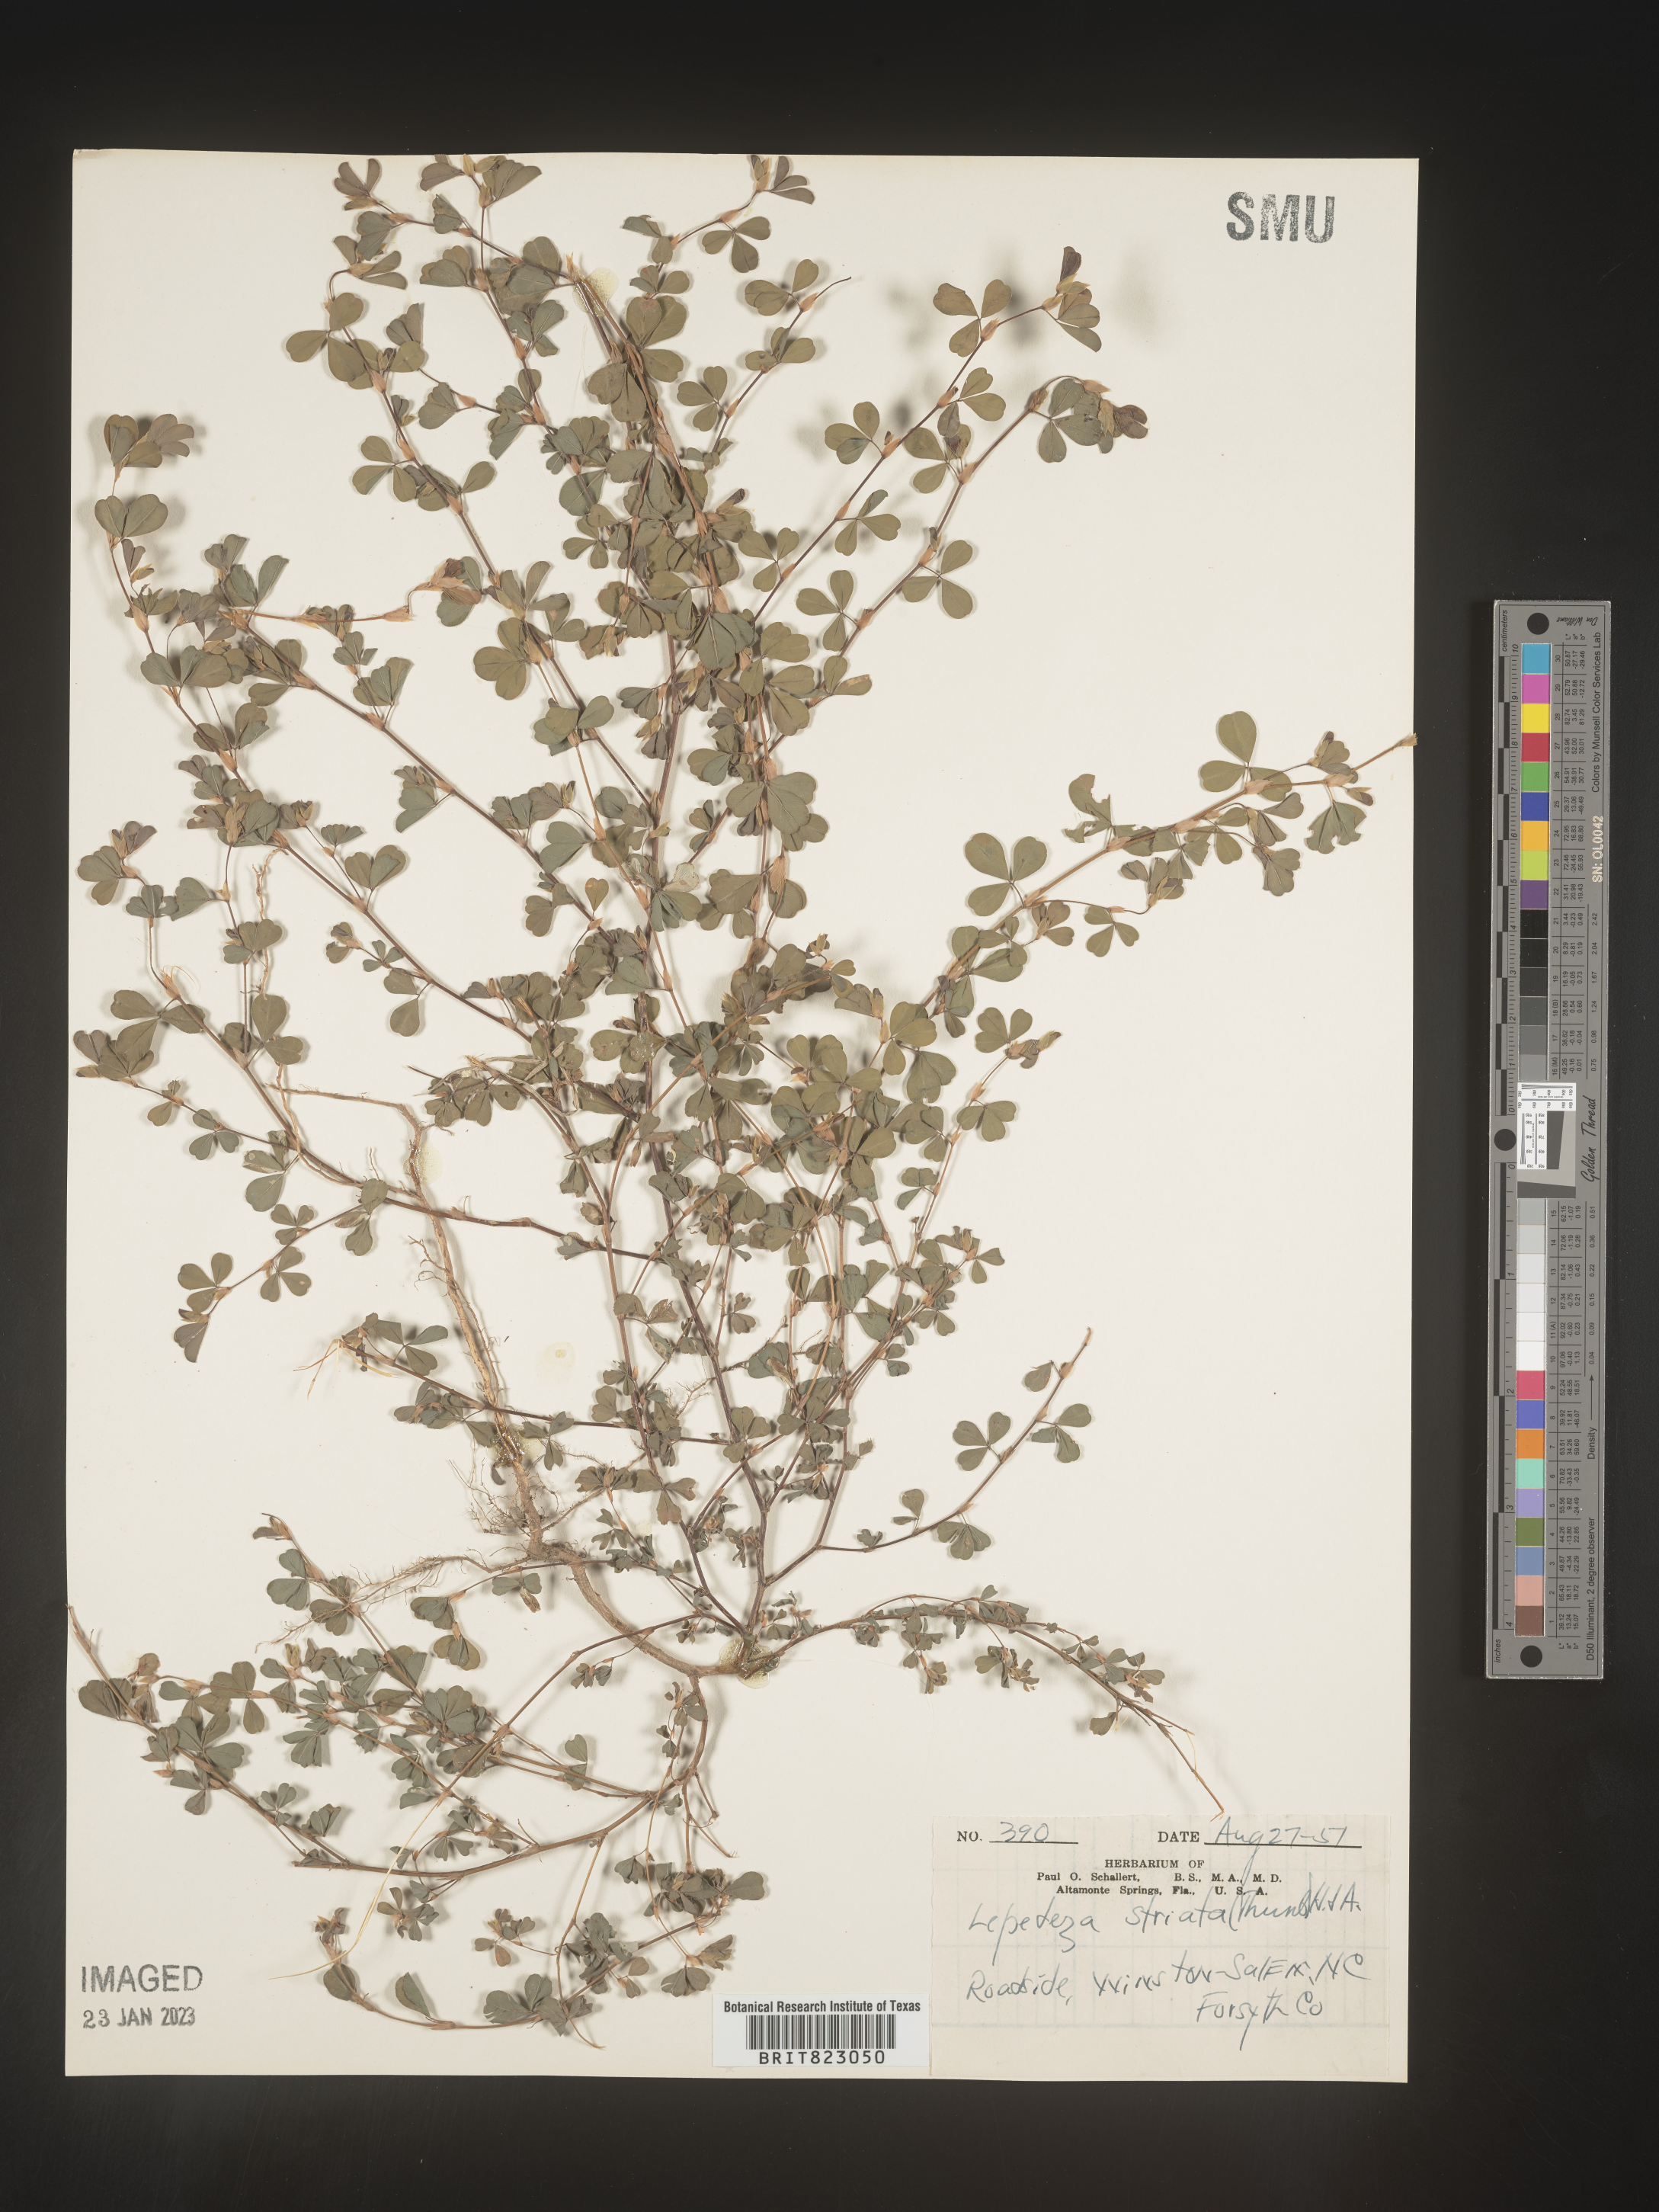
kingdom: Plantae
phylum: Tracheophyta
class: Magnoliopsida
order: Fabales
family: Fabaceae
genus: Kummerowia
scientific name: Kummerowia striata
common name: Japanese clover
